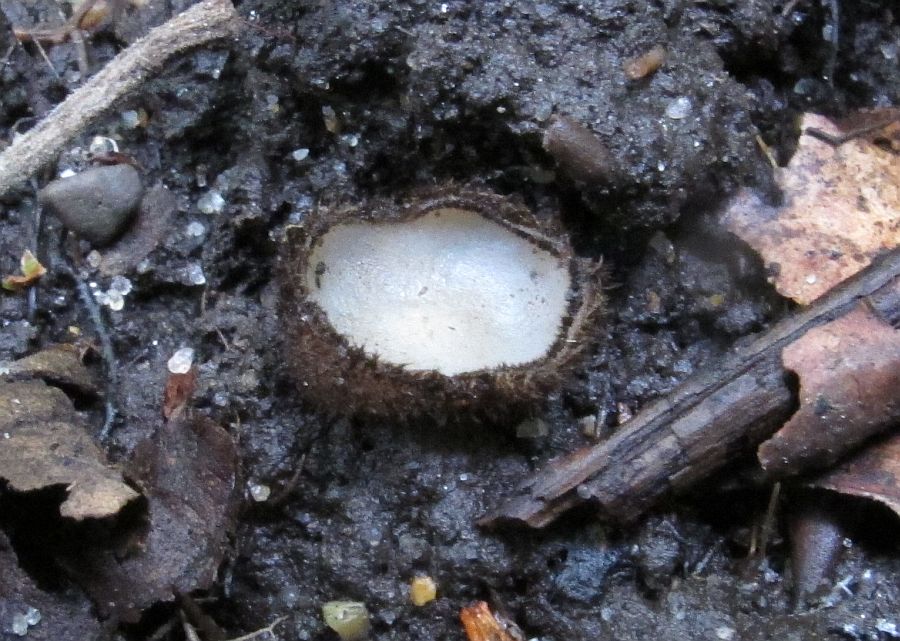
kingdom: Fungi
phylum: Ascomycota
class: Pezizomycetes
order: Pezizales
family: Pyronemataceae
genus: Humaria
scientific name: Humaria hemisphaerica
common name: halvkugleformet børstebæger
